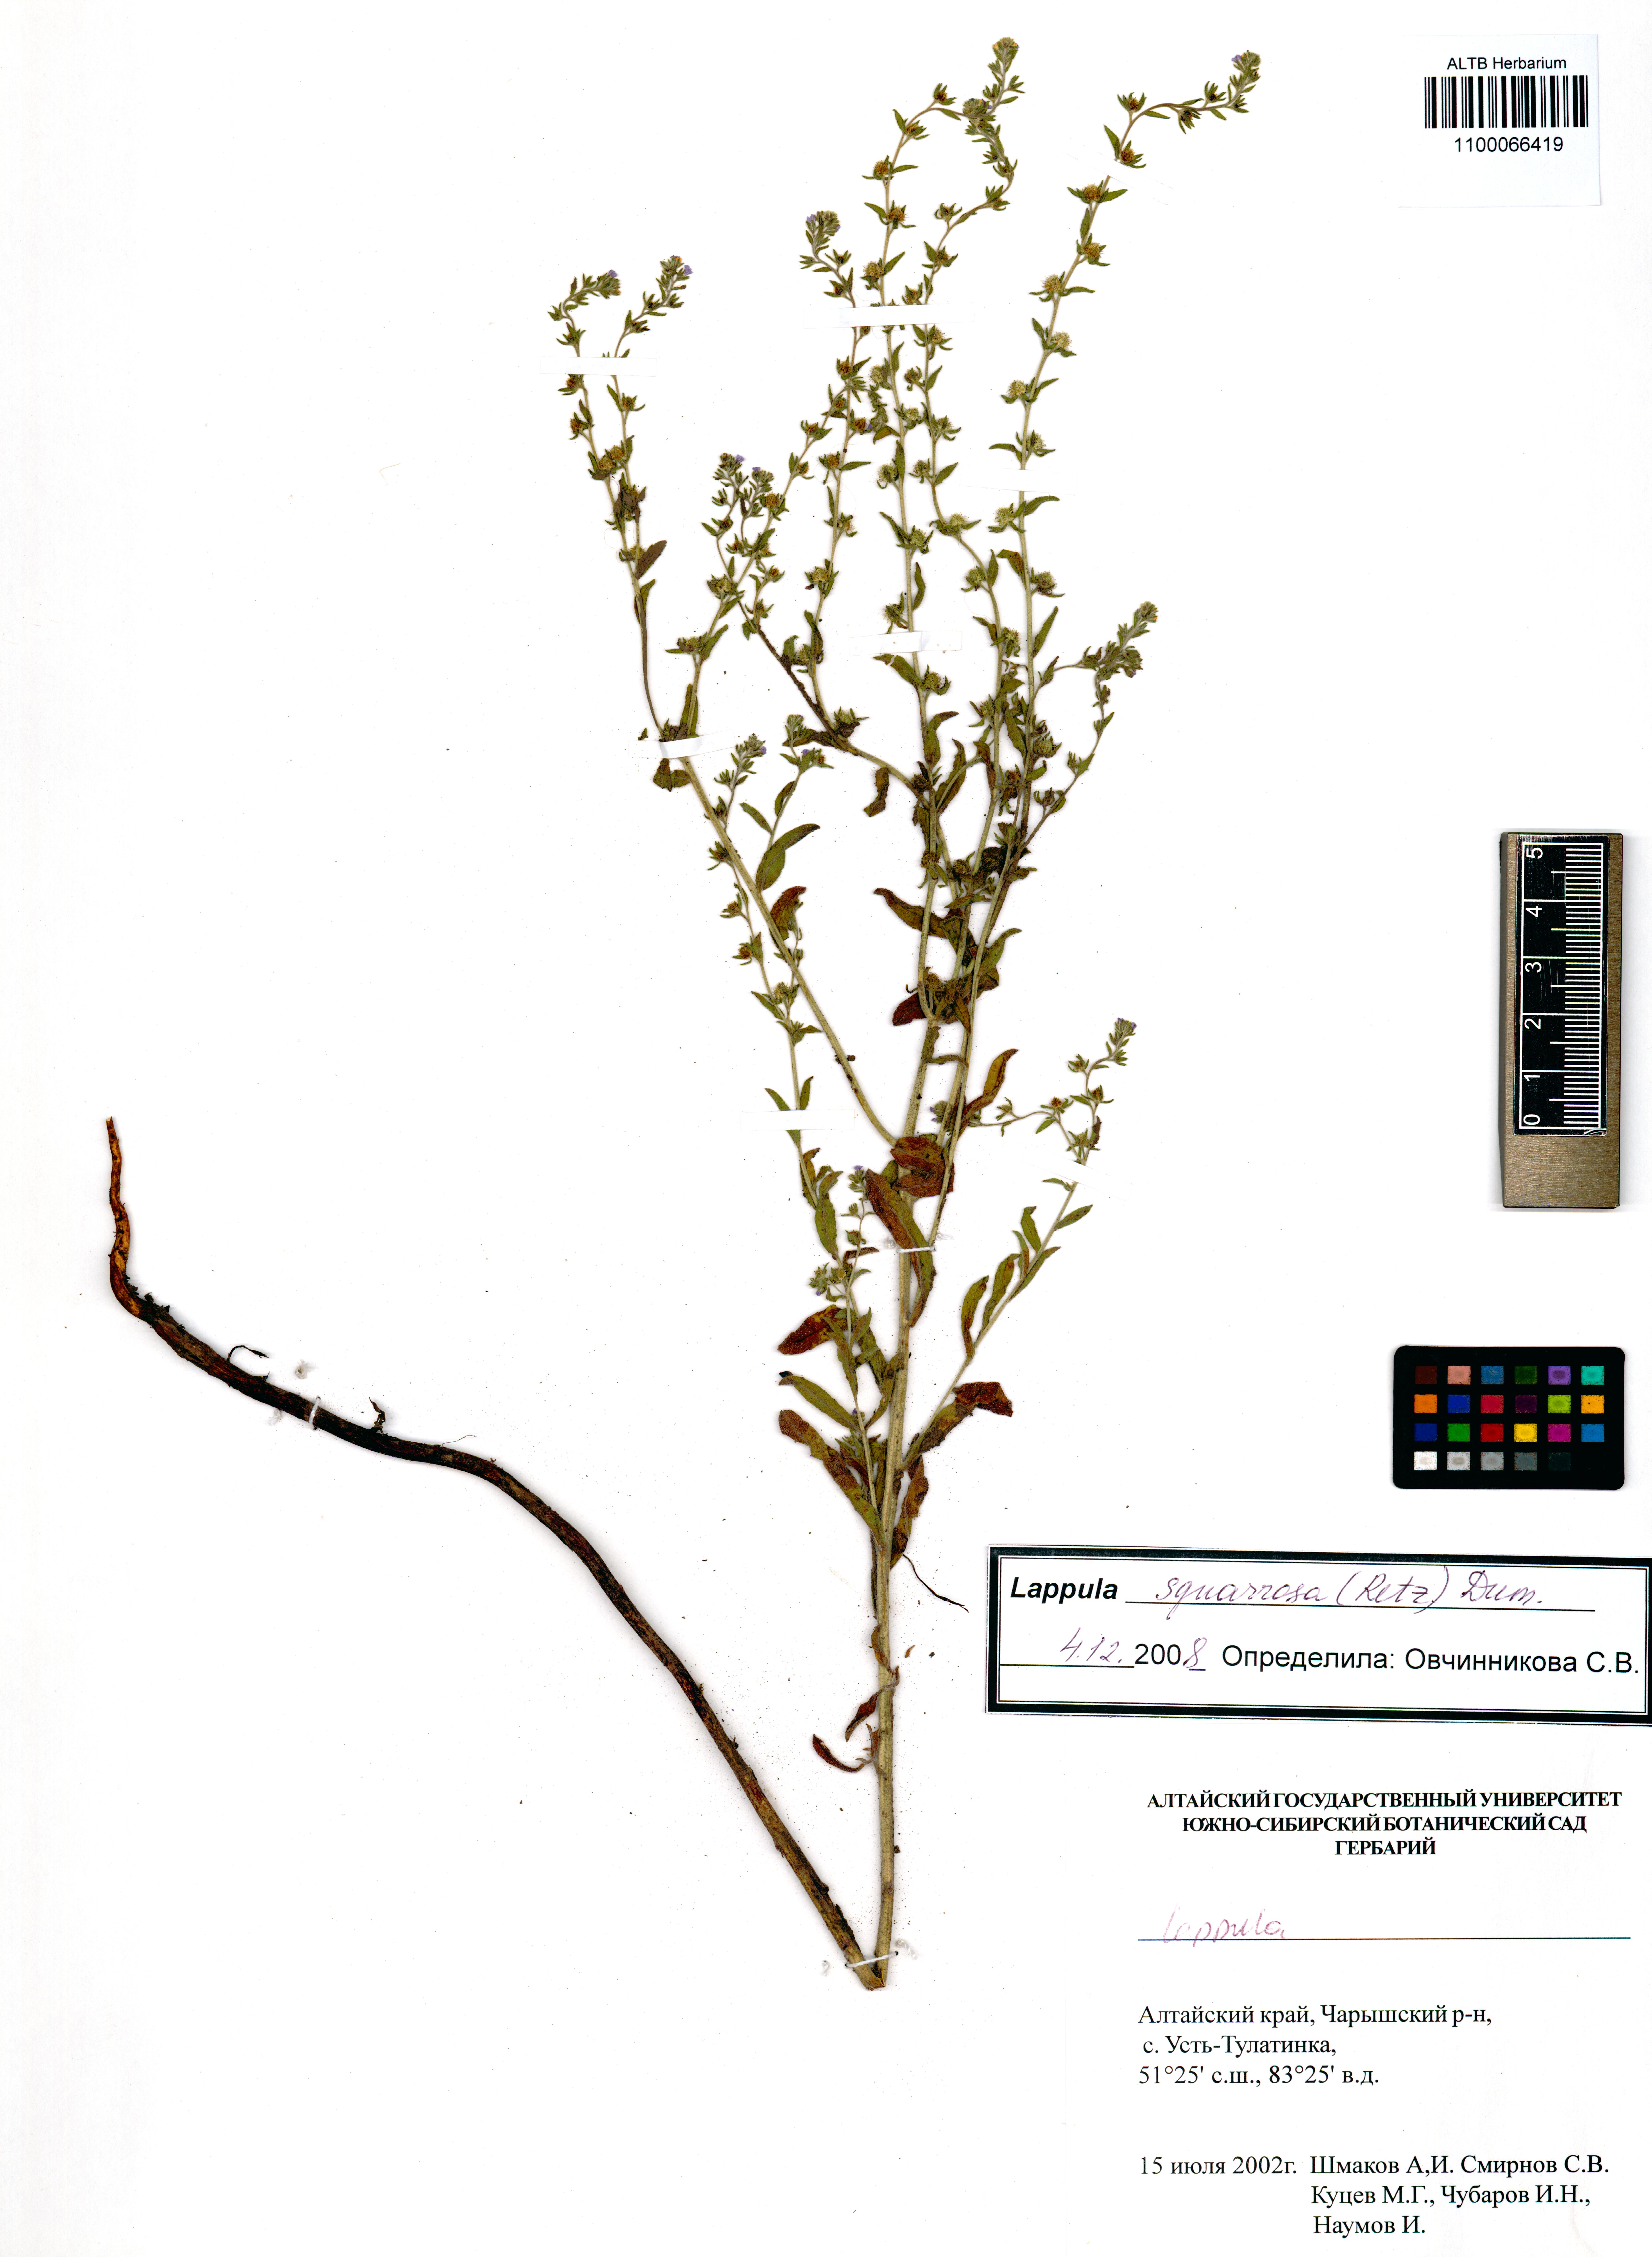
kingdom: Plantae
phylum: Tracheophyta
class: Magnoliopsida
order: Boraginales
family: Boraginaceae
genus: Lappula
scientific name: Lappula squarrosa
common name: European stickseed
